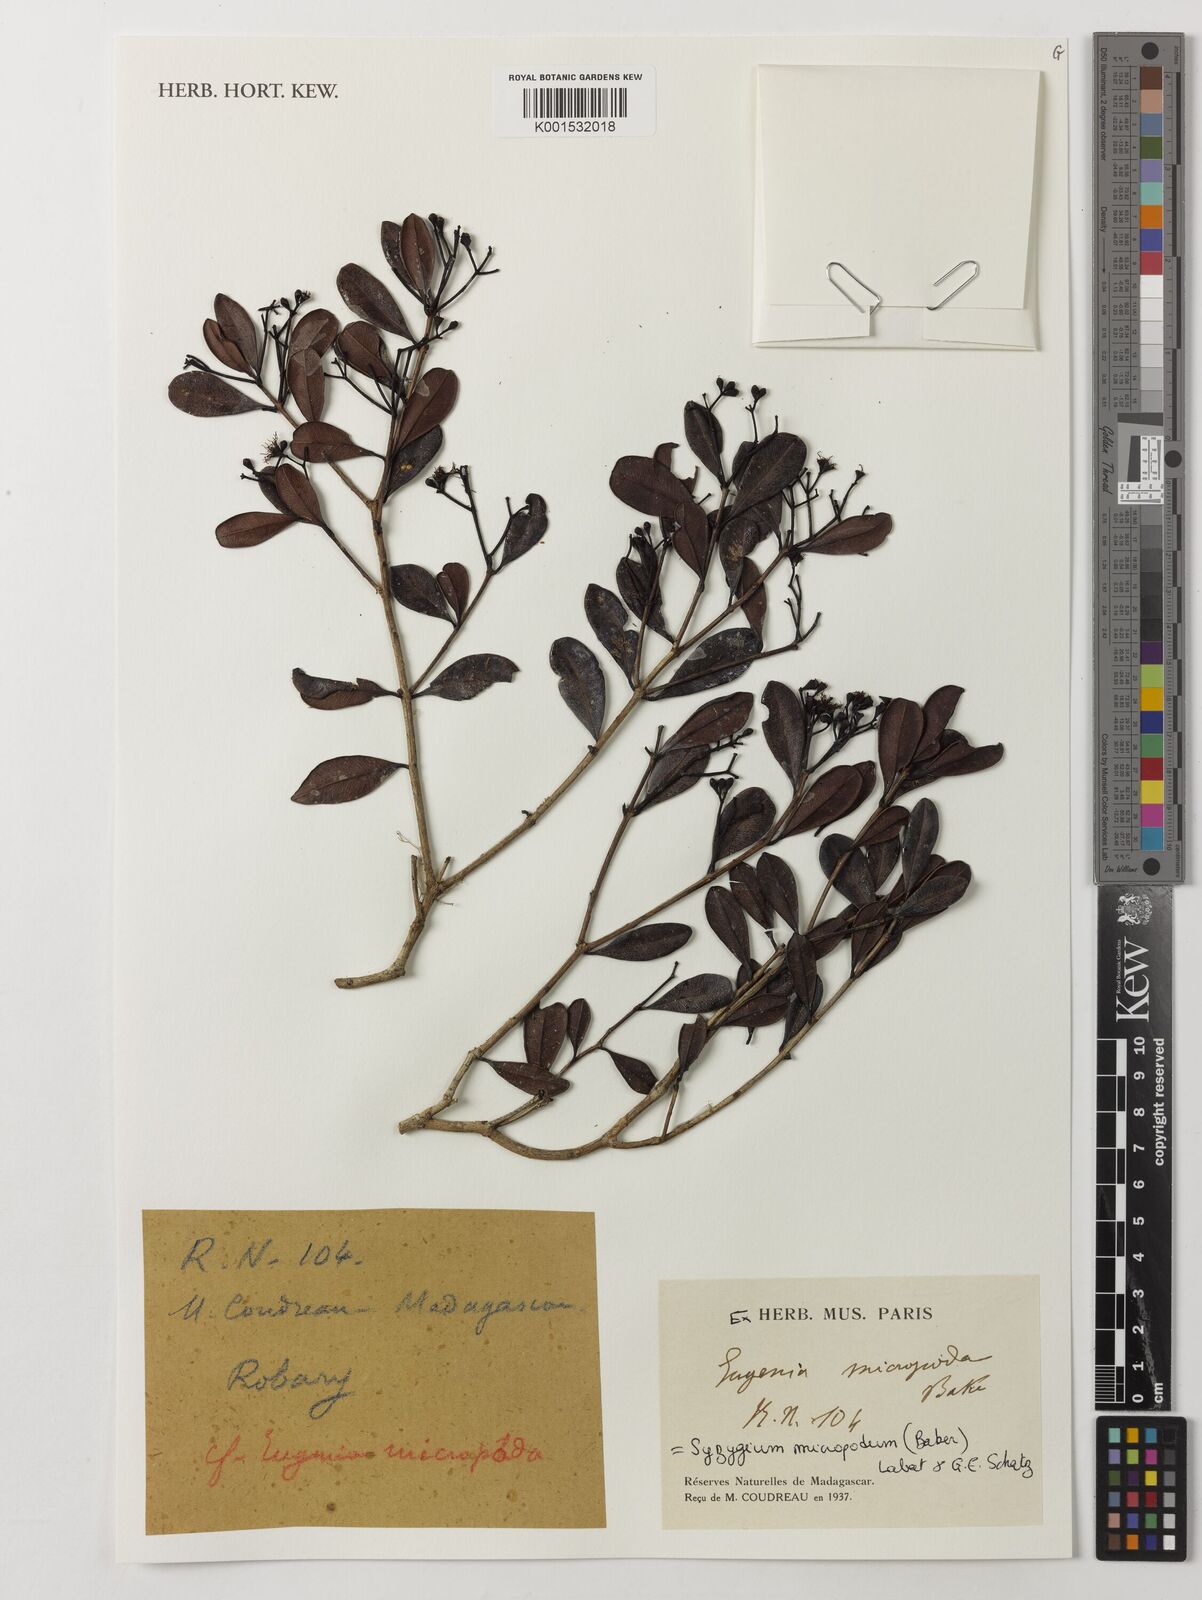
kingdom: Plantae
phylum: Tracheophyta
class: Magnoliopsida
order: Myrtales
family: Myrtaceae
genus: Syzygium
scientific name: Syzygium micropodum
